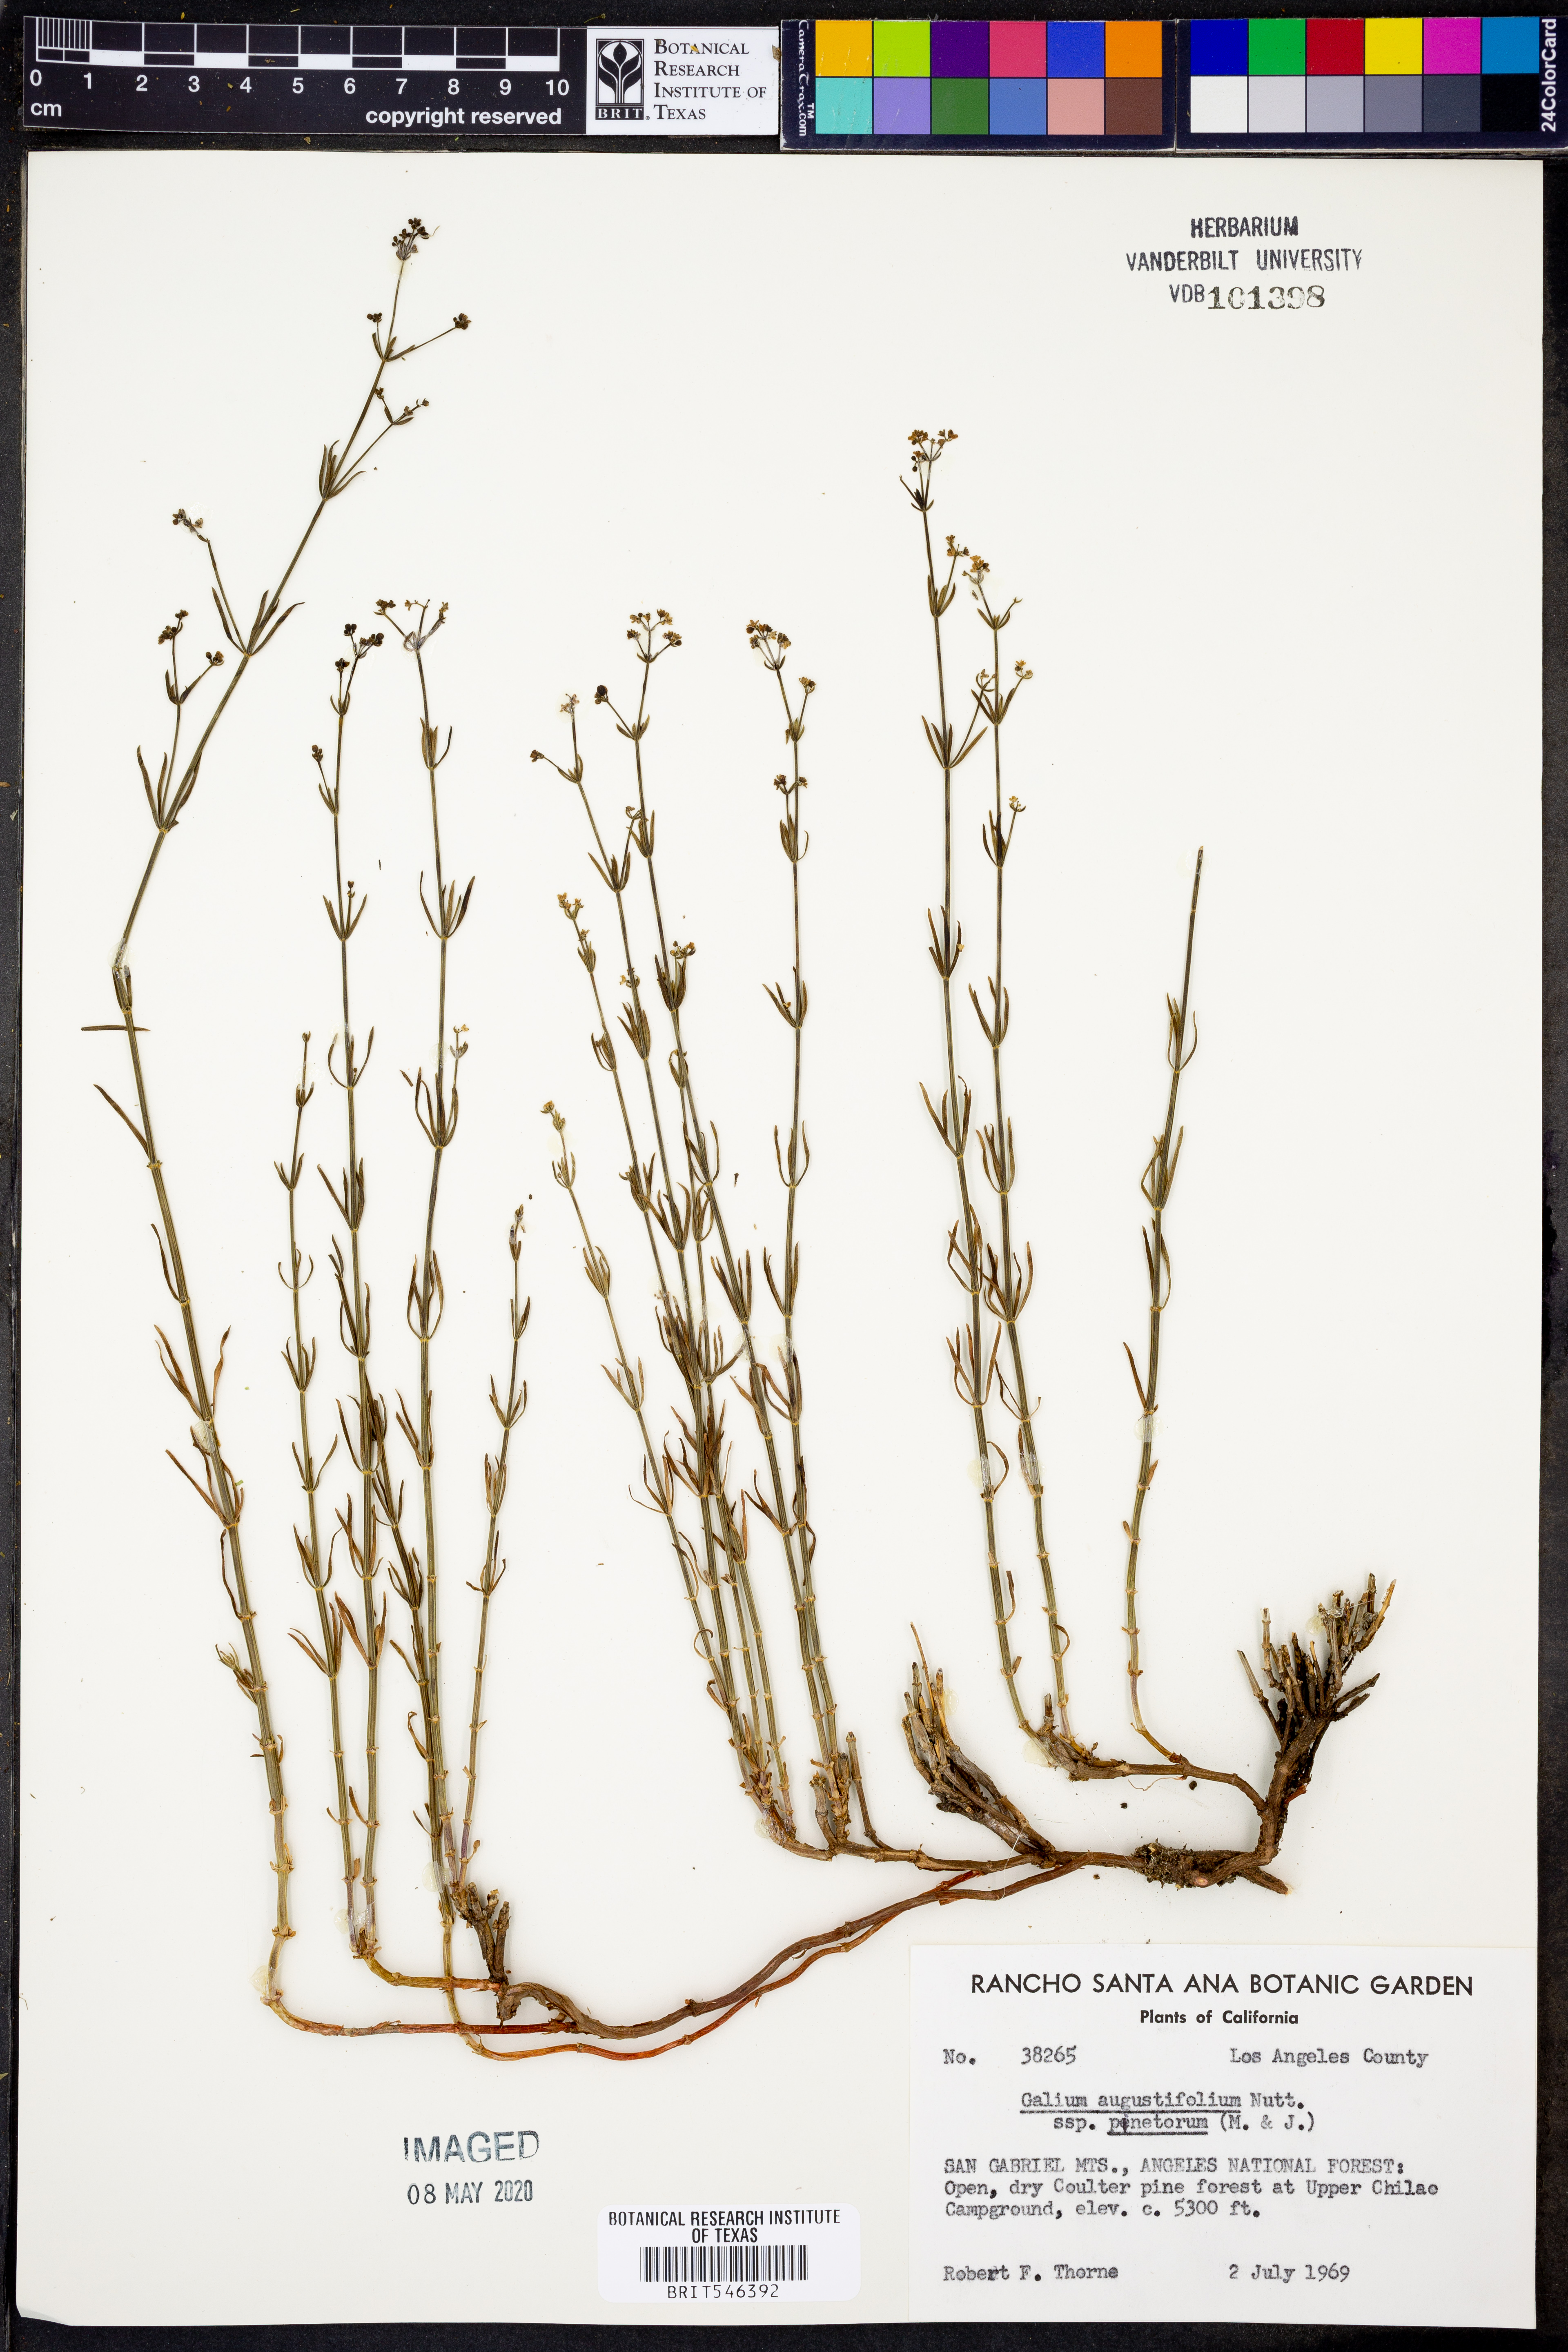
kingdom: Plantae
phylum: Tracheophyta
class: Magnoliopsida
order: Gentianales
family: Rubiaceae
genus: Galium
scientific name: Galium johnstonii
